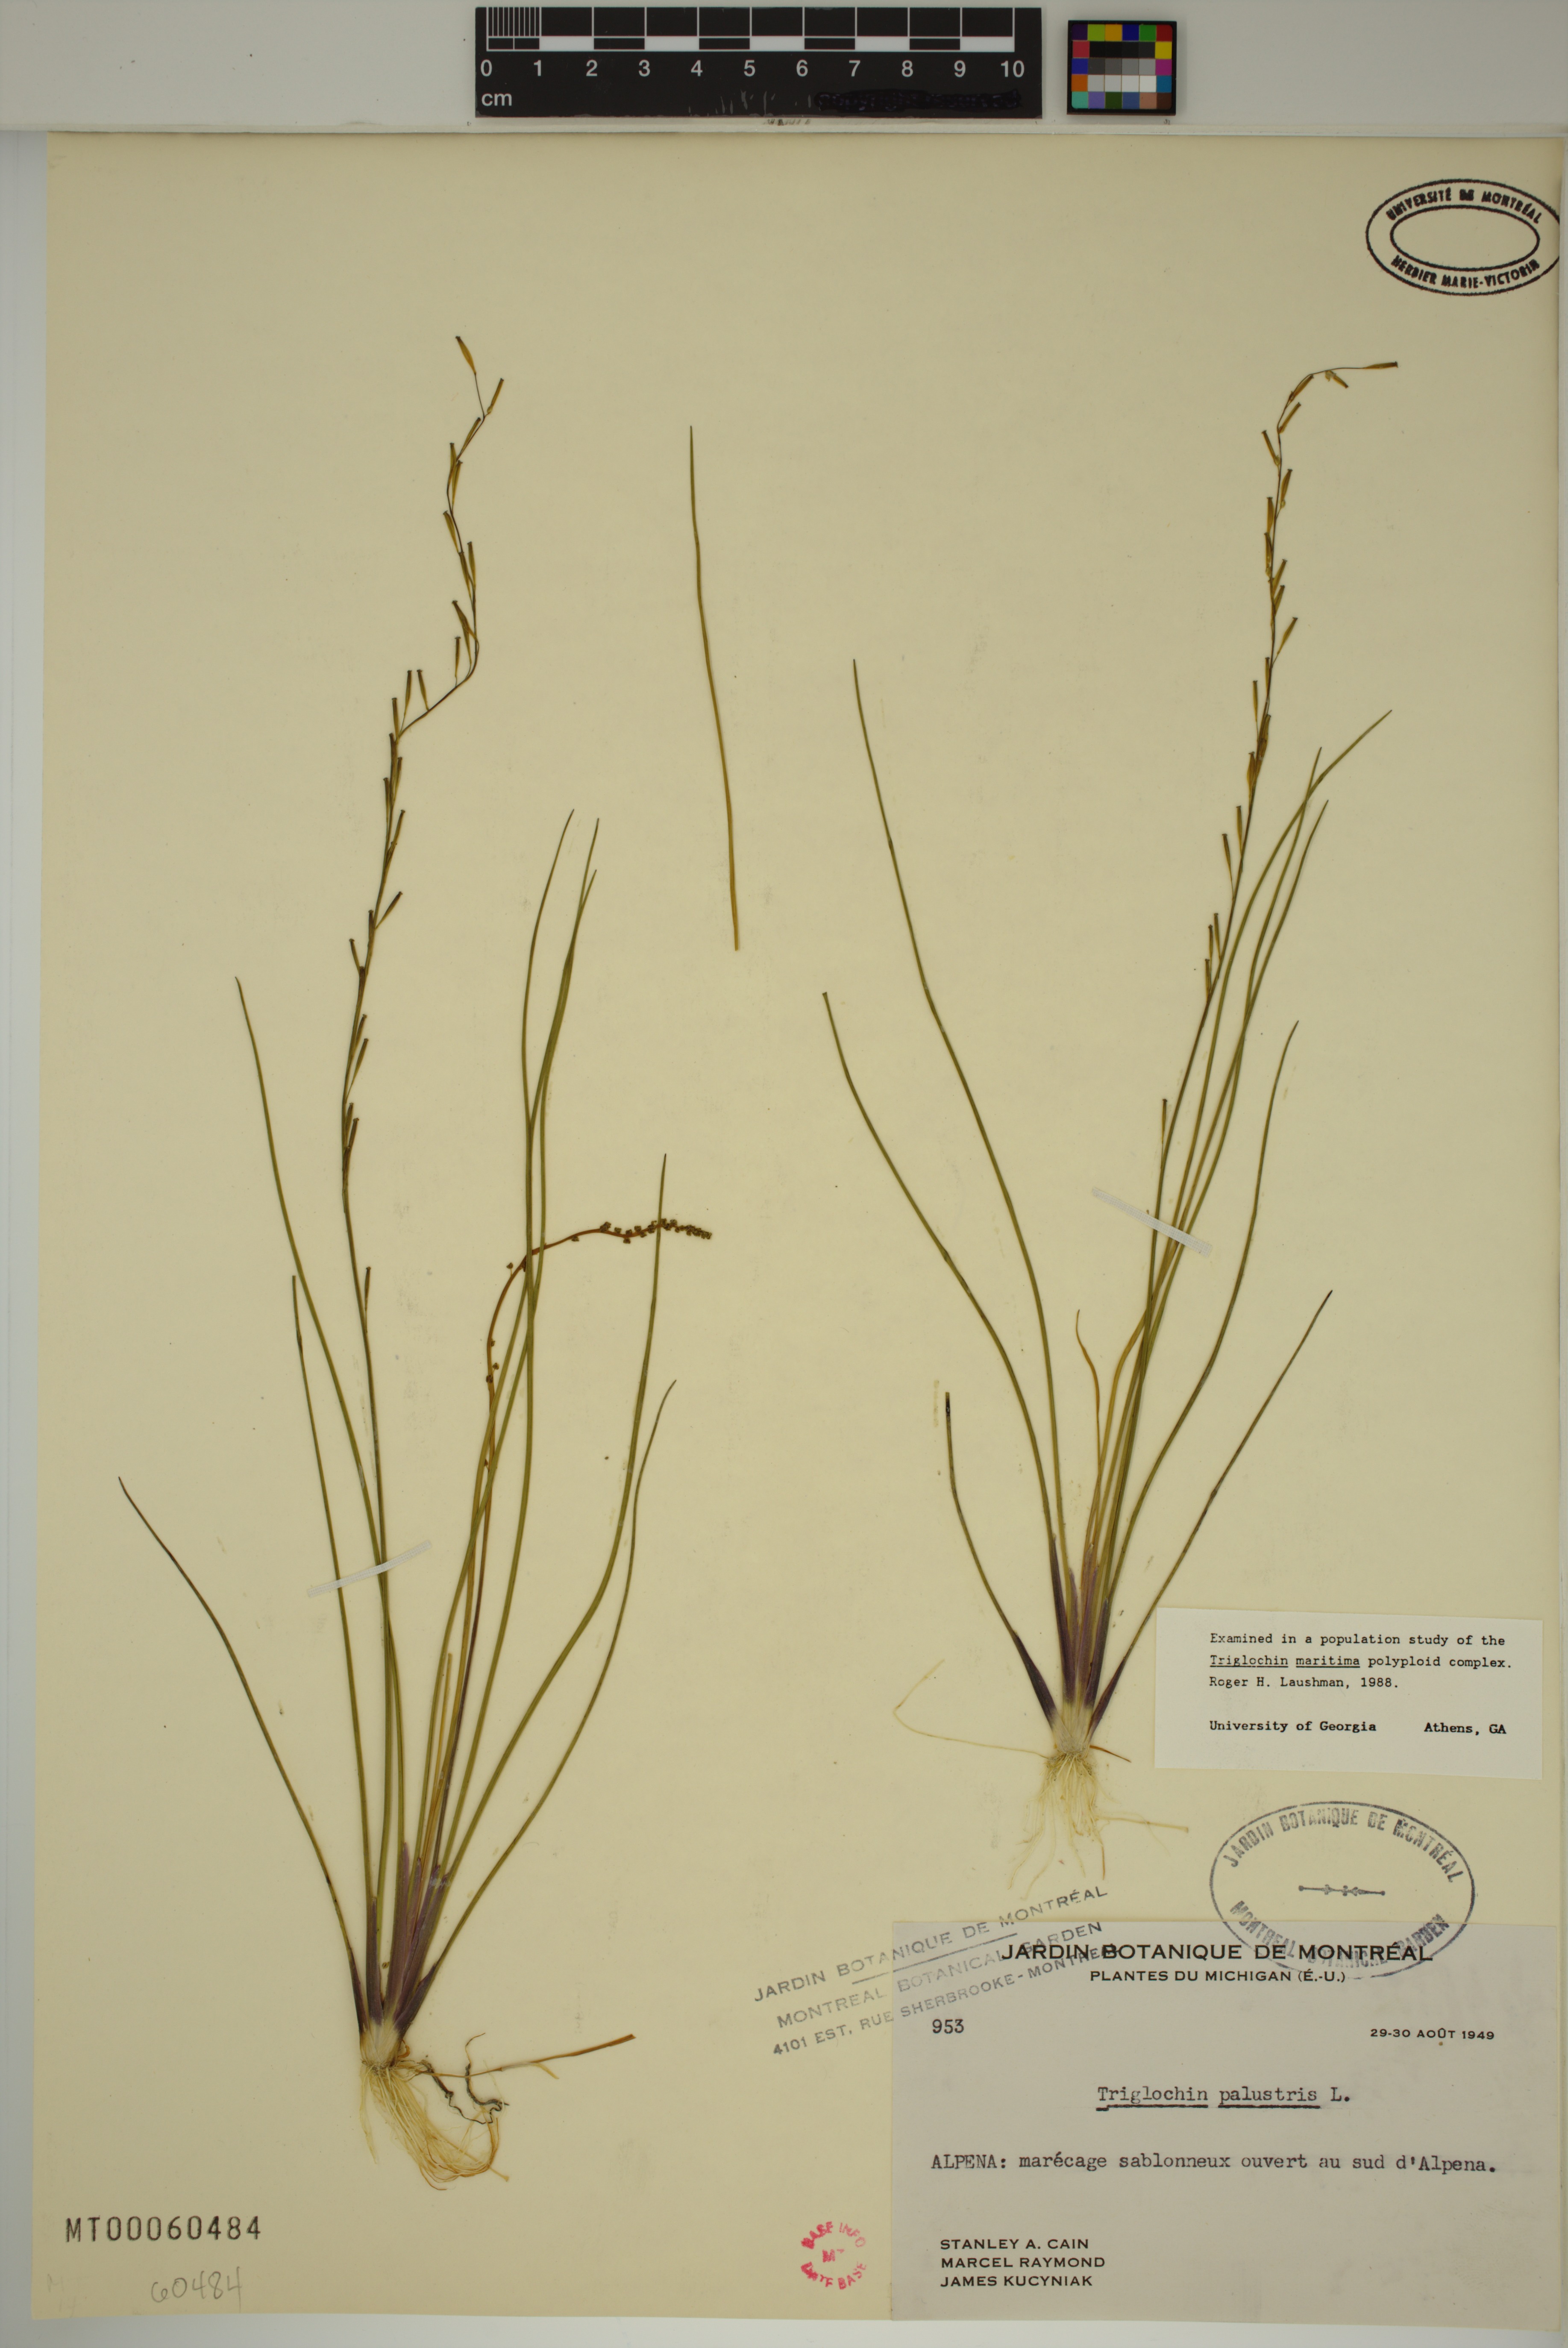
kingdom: Plantae
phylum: Tracheophyta
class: Liliopsida
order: Alismatales
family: Juncaginaceae
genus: Triglochin
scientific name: Triglochin palustris
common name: Marsh arrowgrass
